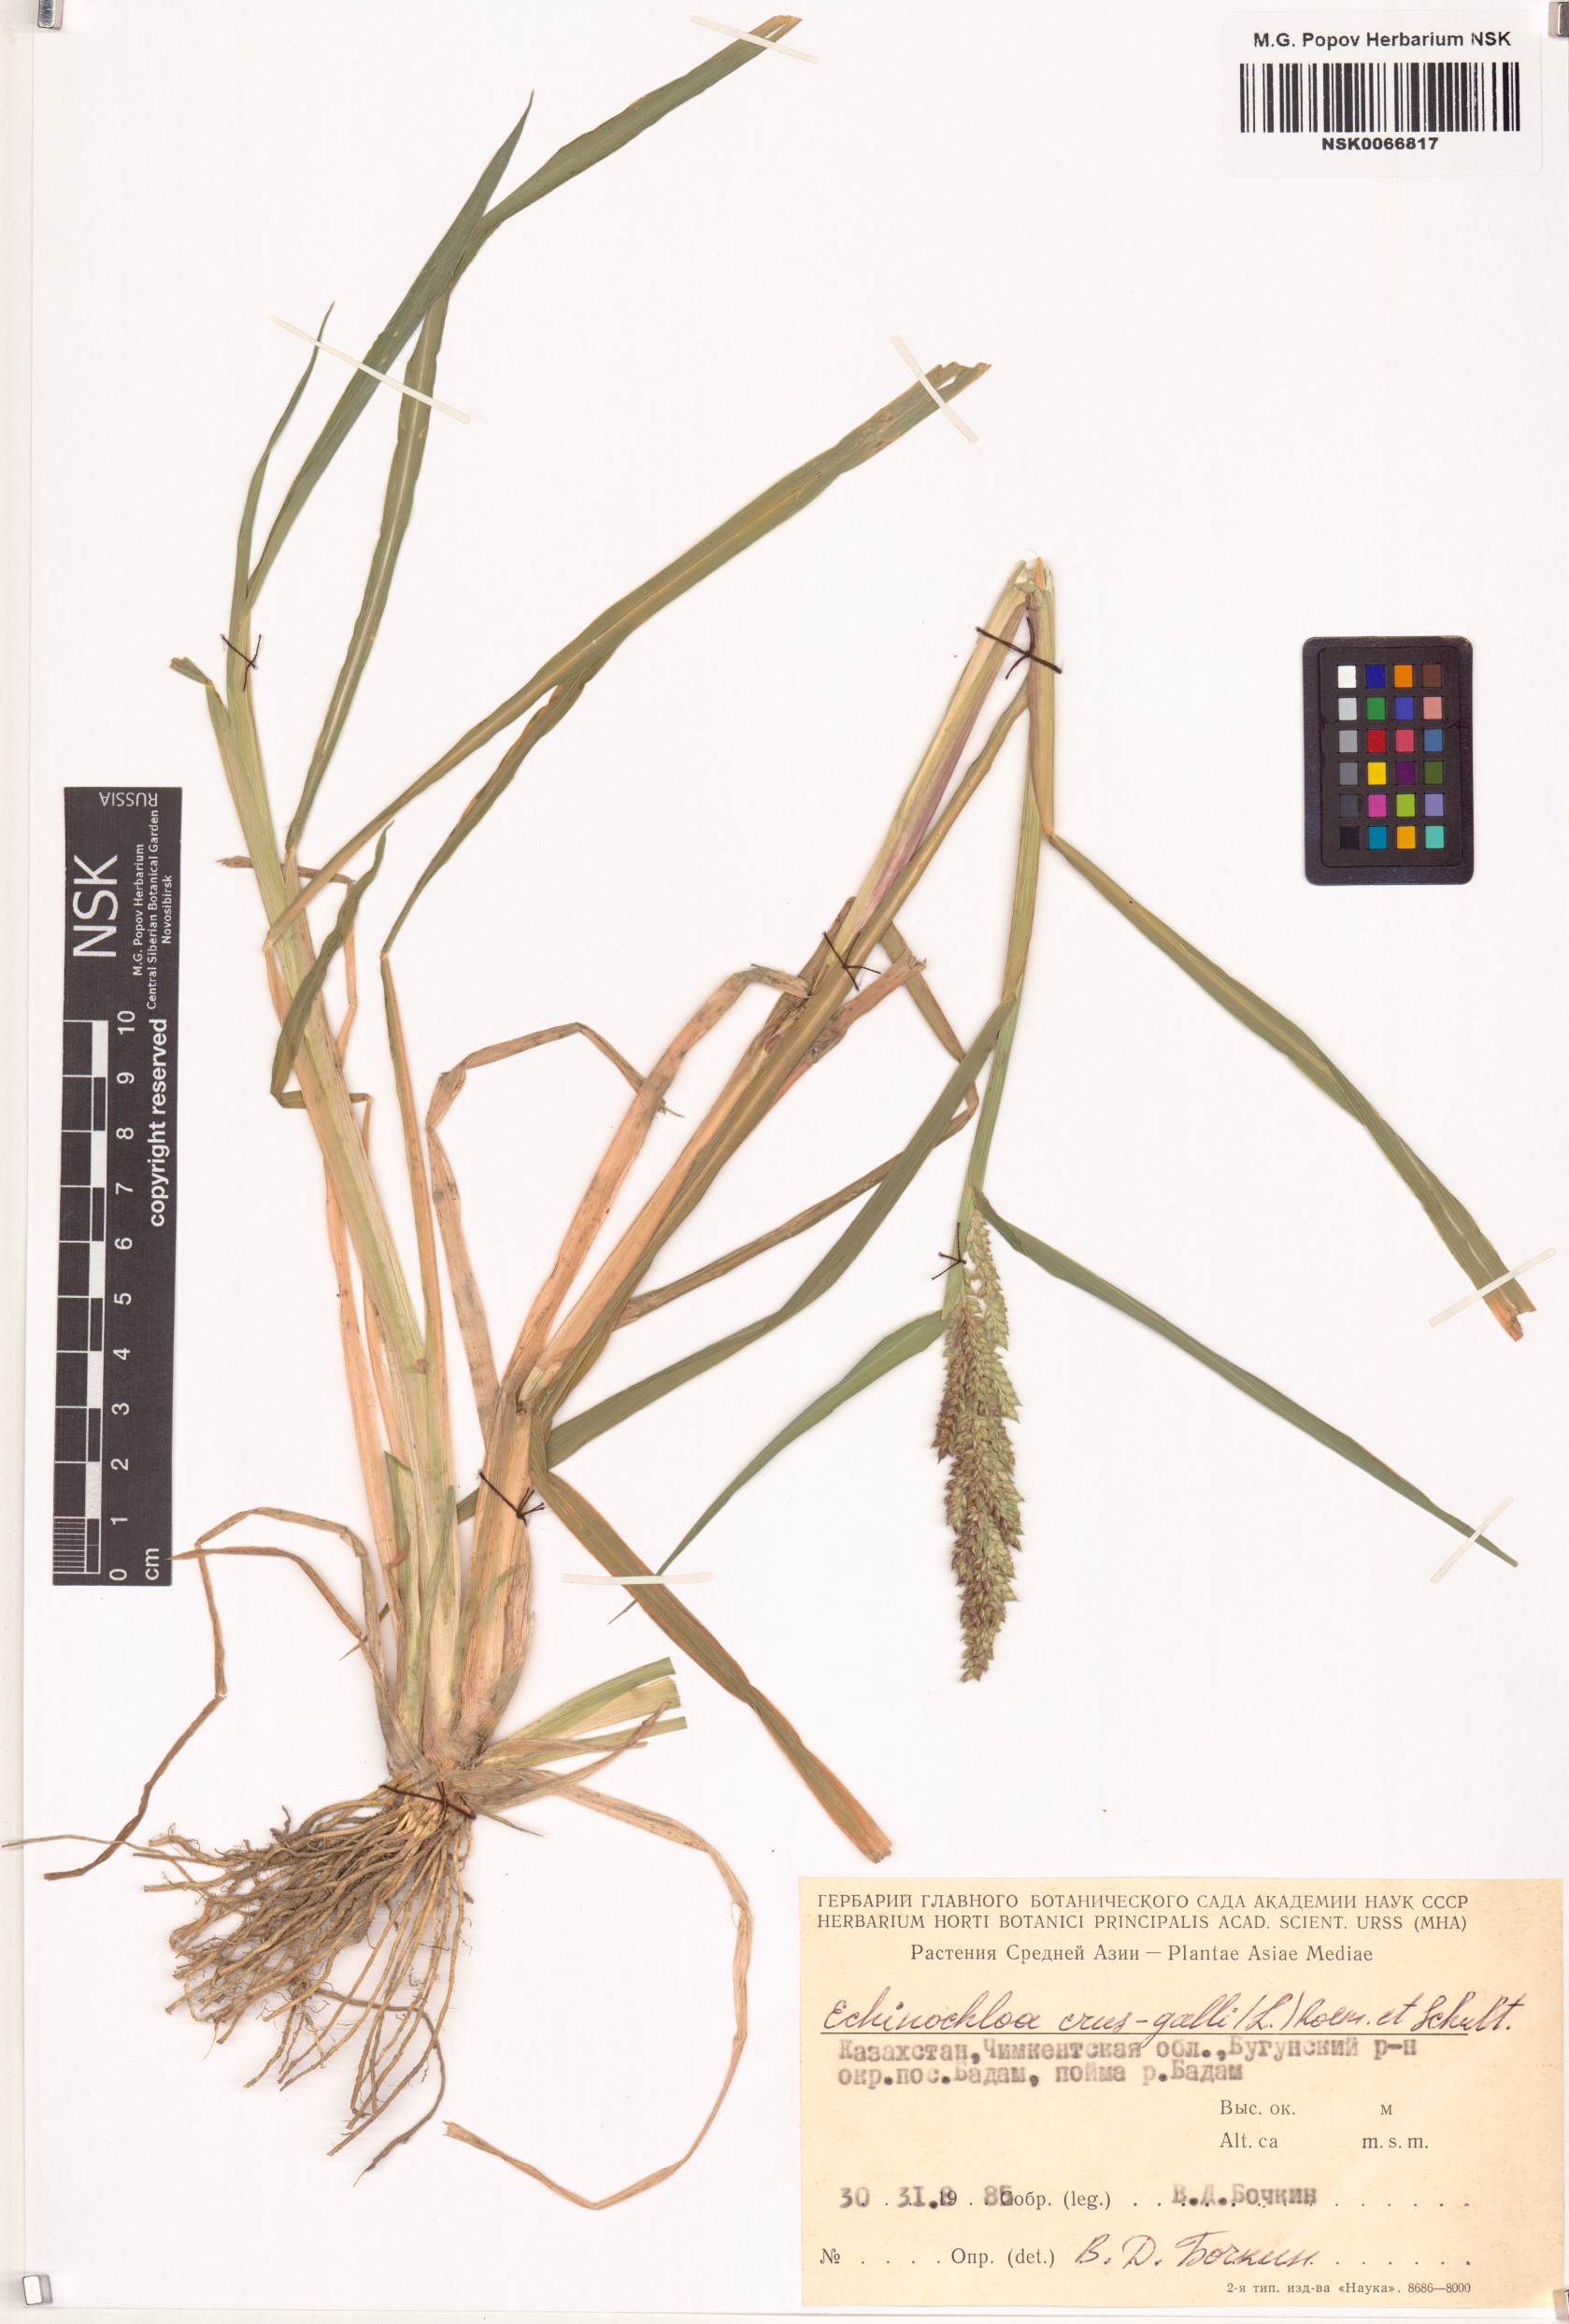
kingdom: Plantae
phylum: Tracheophyta
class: Liliopsida
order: Poales
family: Poaceae
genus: Echinochloa
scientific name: Echinochloa crus-galli
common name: Cockspur
